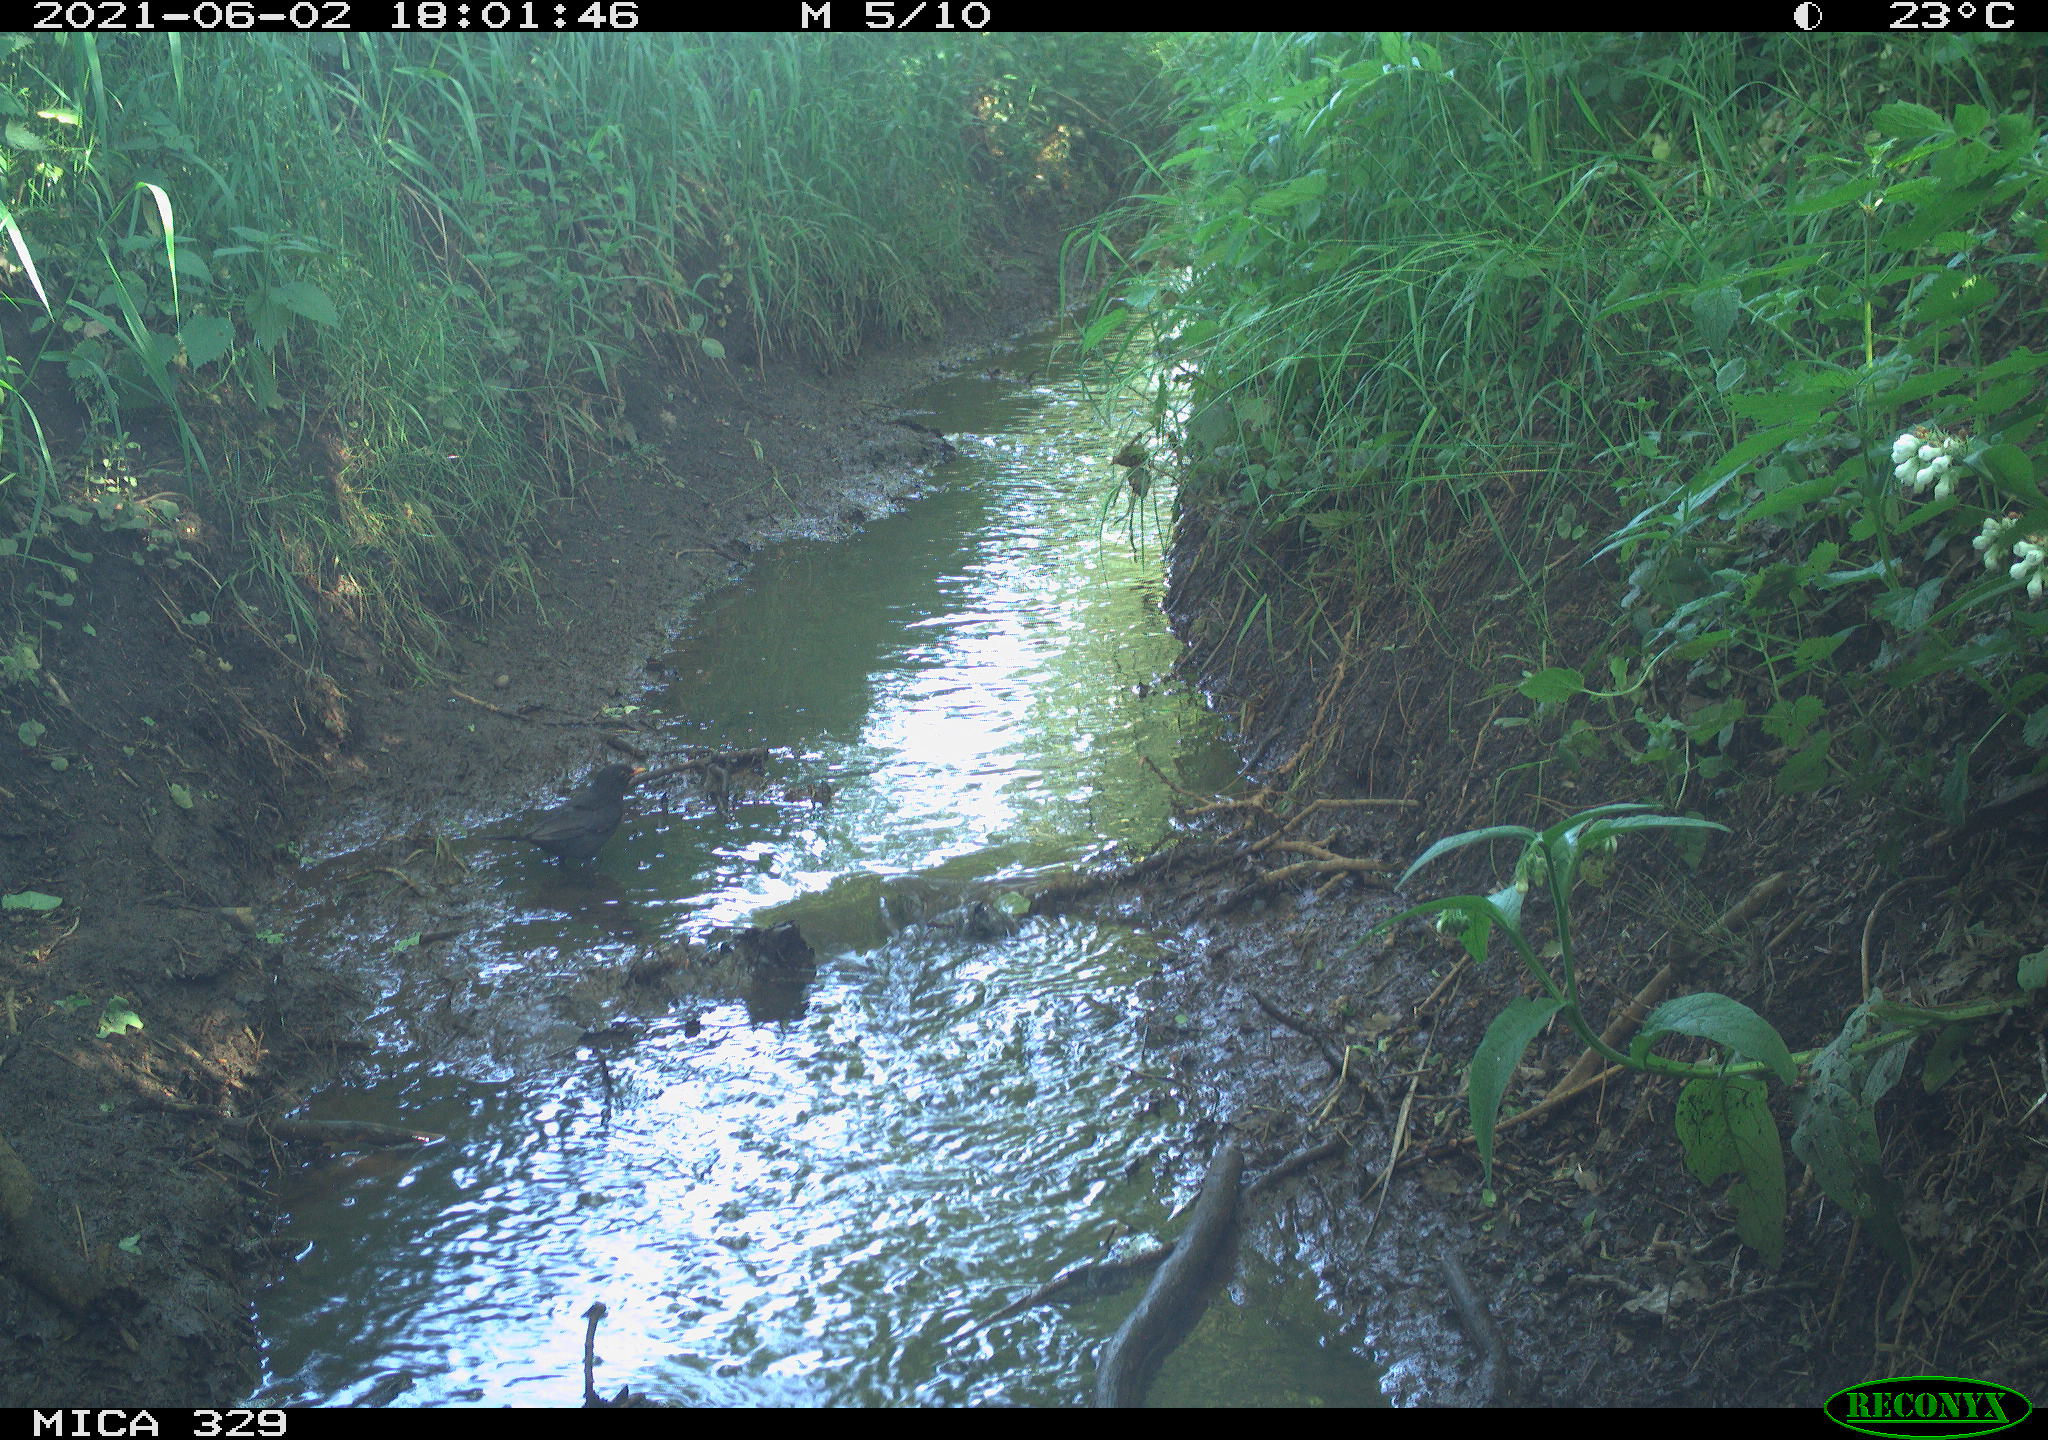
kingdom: Animalia
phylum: Chordata
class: Aves
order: Passeriformes
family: Turdidae
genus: Turdus
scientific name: Turdus merula
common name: Common blackbird
